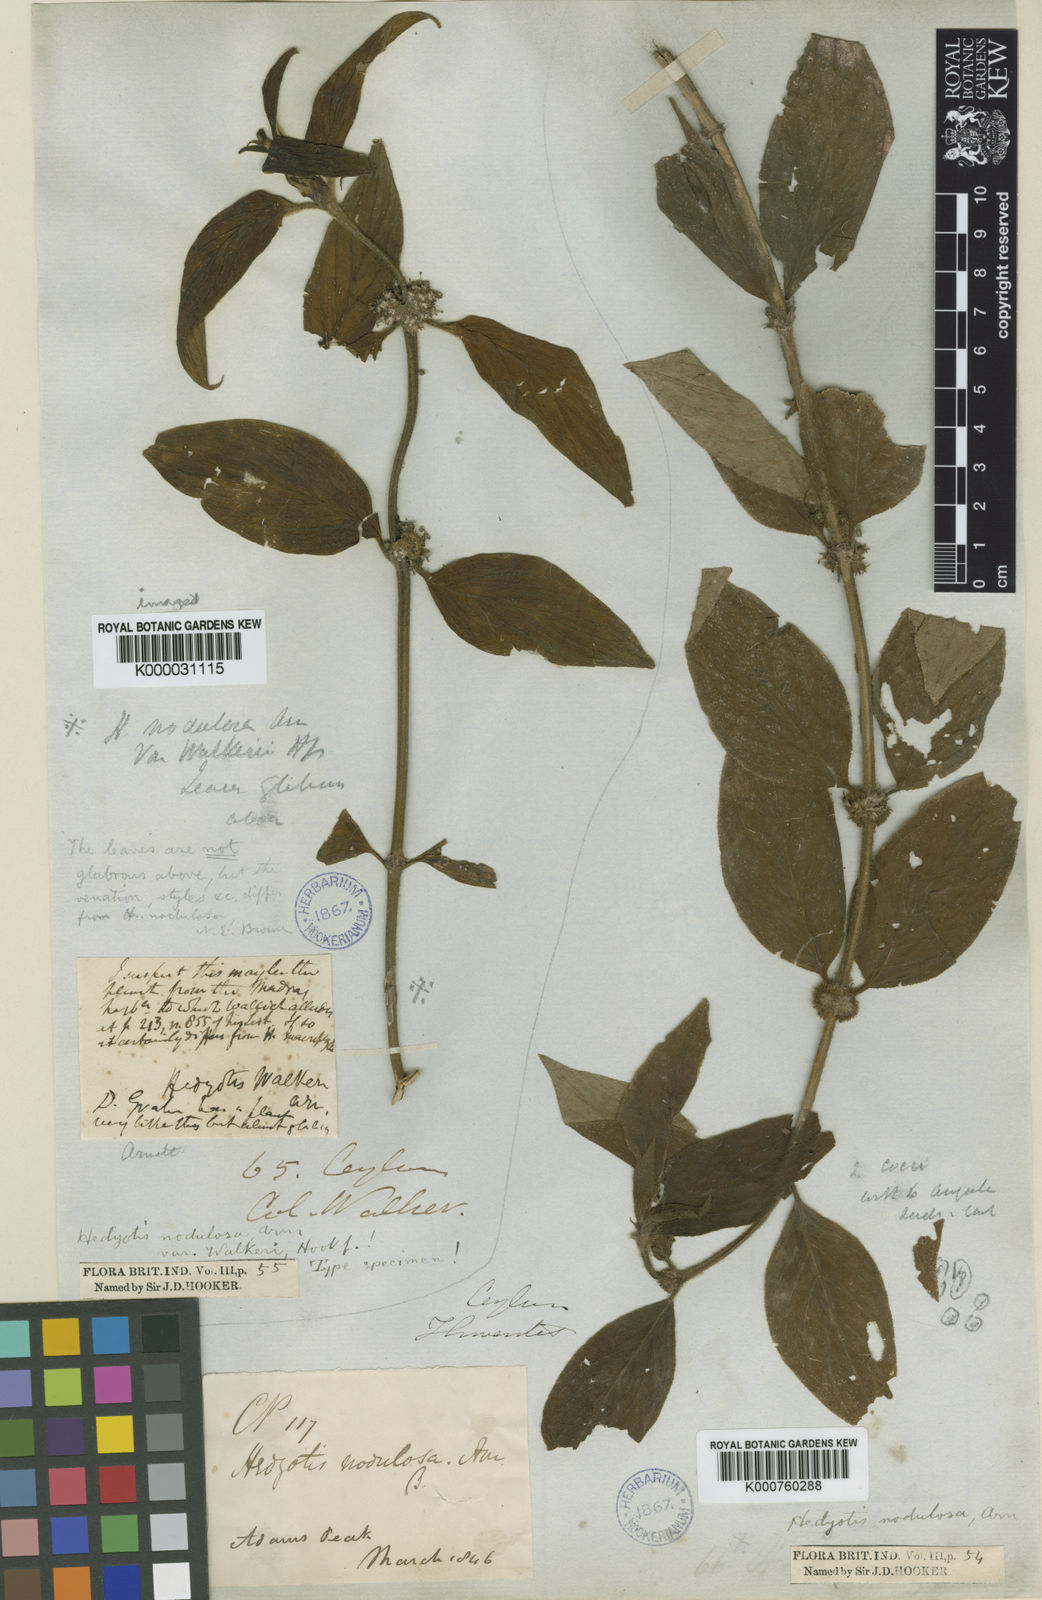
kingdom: Plantae
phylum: Tracheophyta
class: Magnoliopsida
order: Gentianales
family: Rubiaceae
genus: Hedyotis
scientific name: Hedyotis nodulosa
